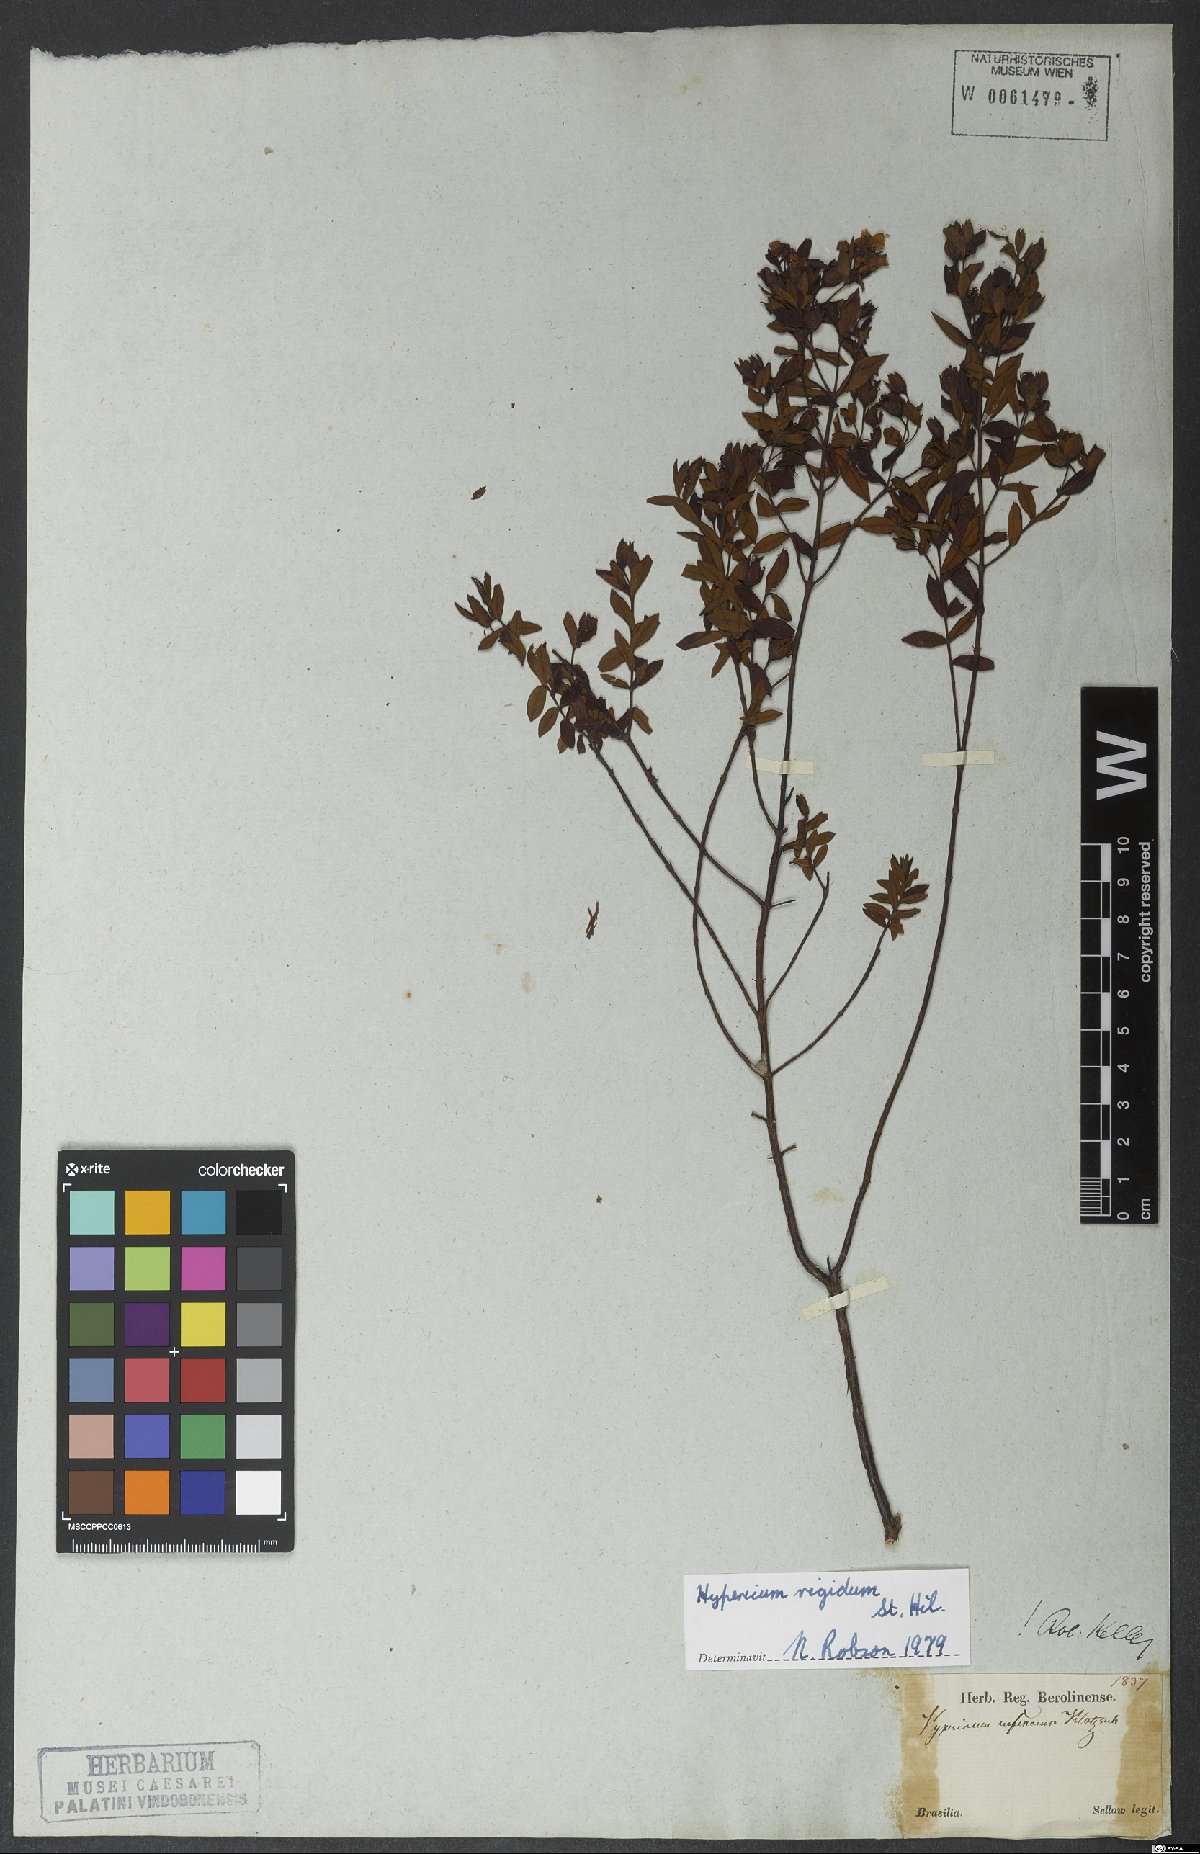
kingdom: Plantae
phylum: Tracheophyta
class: Magnoliopsida
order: Malpighiales
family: Hypericaceae
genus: Hypericum
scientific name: Hypericum rigidum
